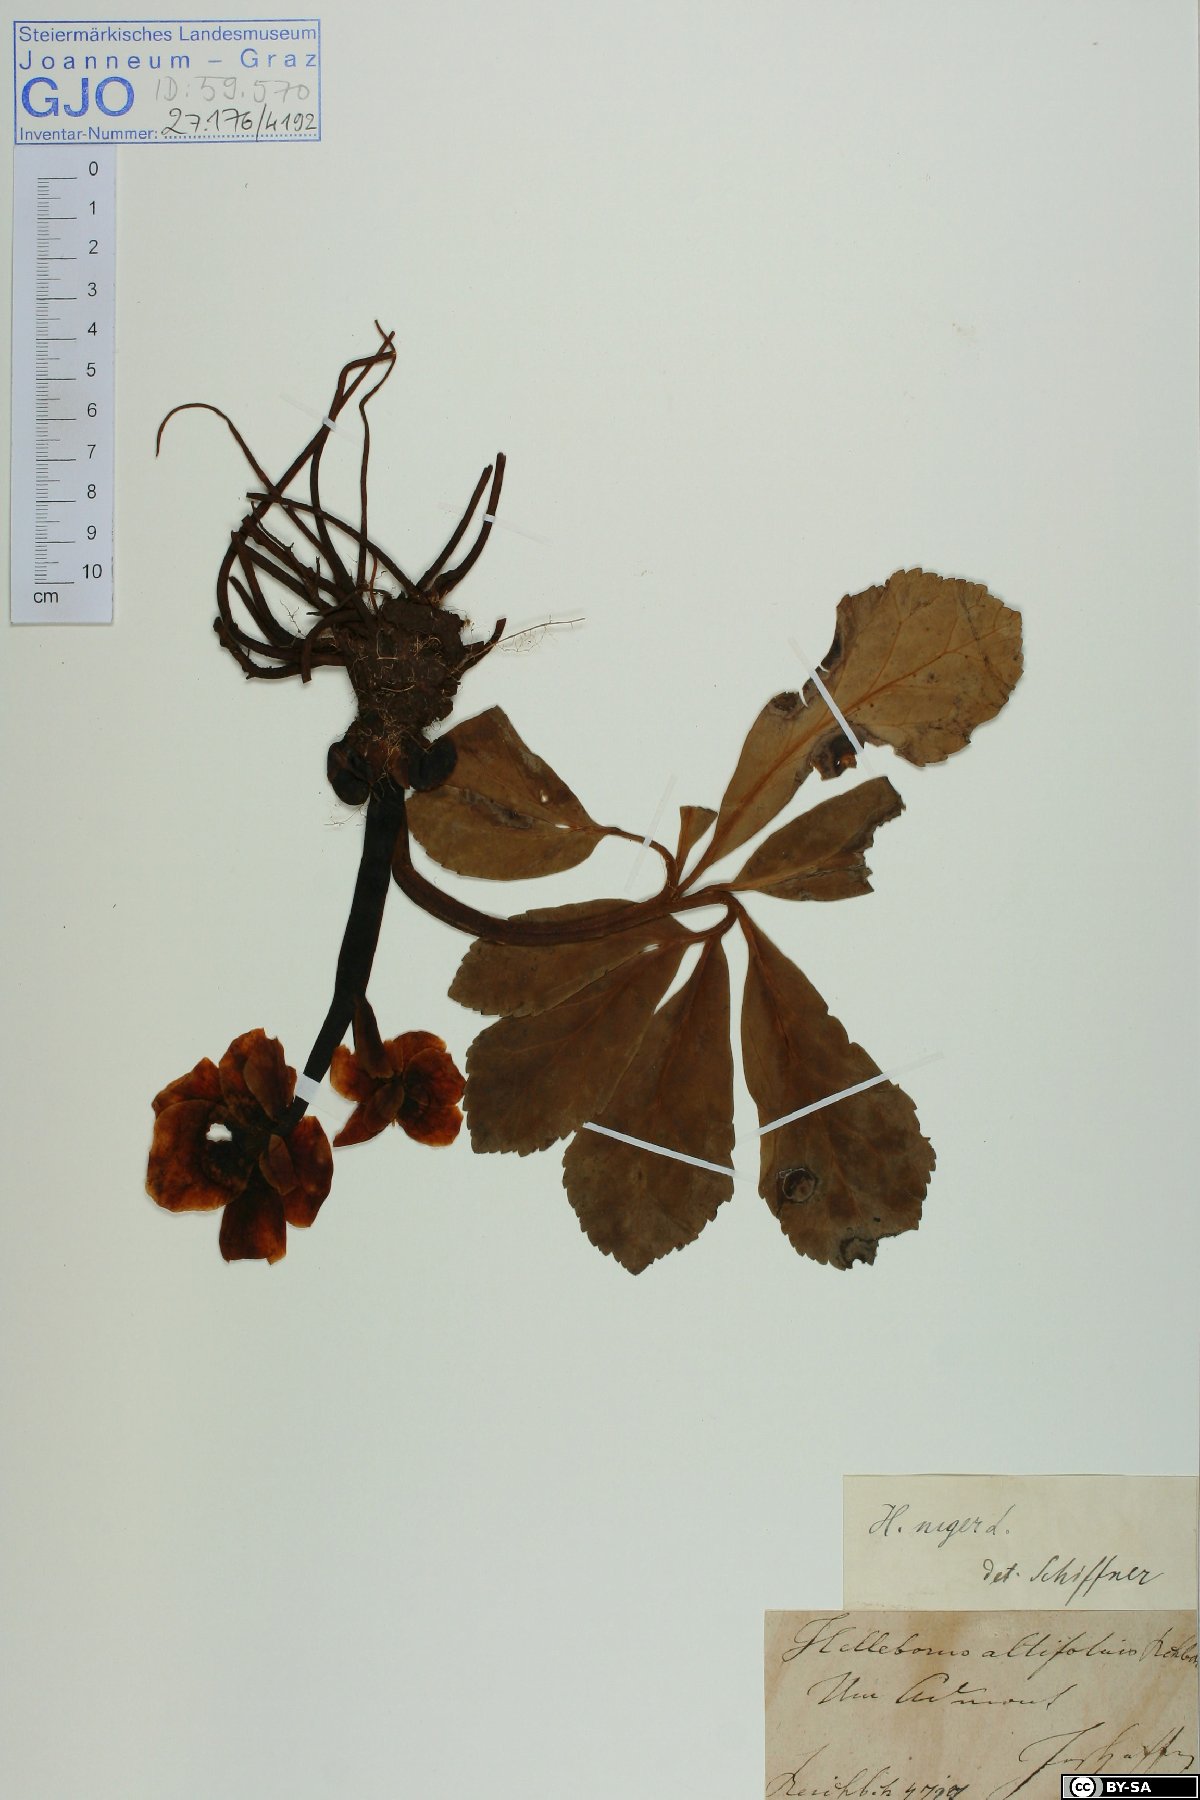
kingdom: Plantae
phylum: Tracheophyta
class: Magnoliopsida
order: Ranunculales
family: Ranunculaceae
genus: Helleborus
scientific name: Helleborus niger
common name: Black hellebore
